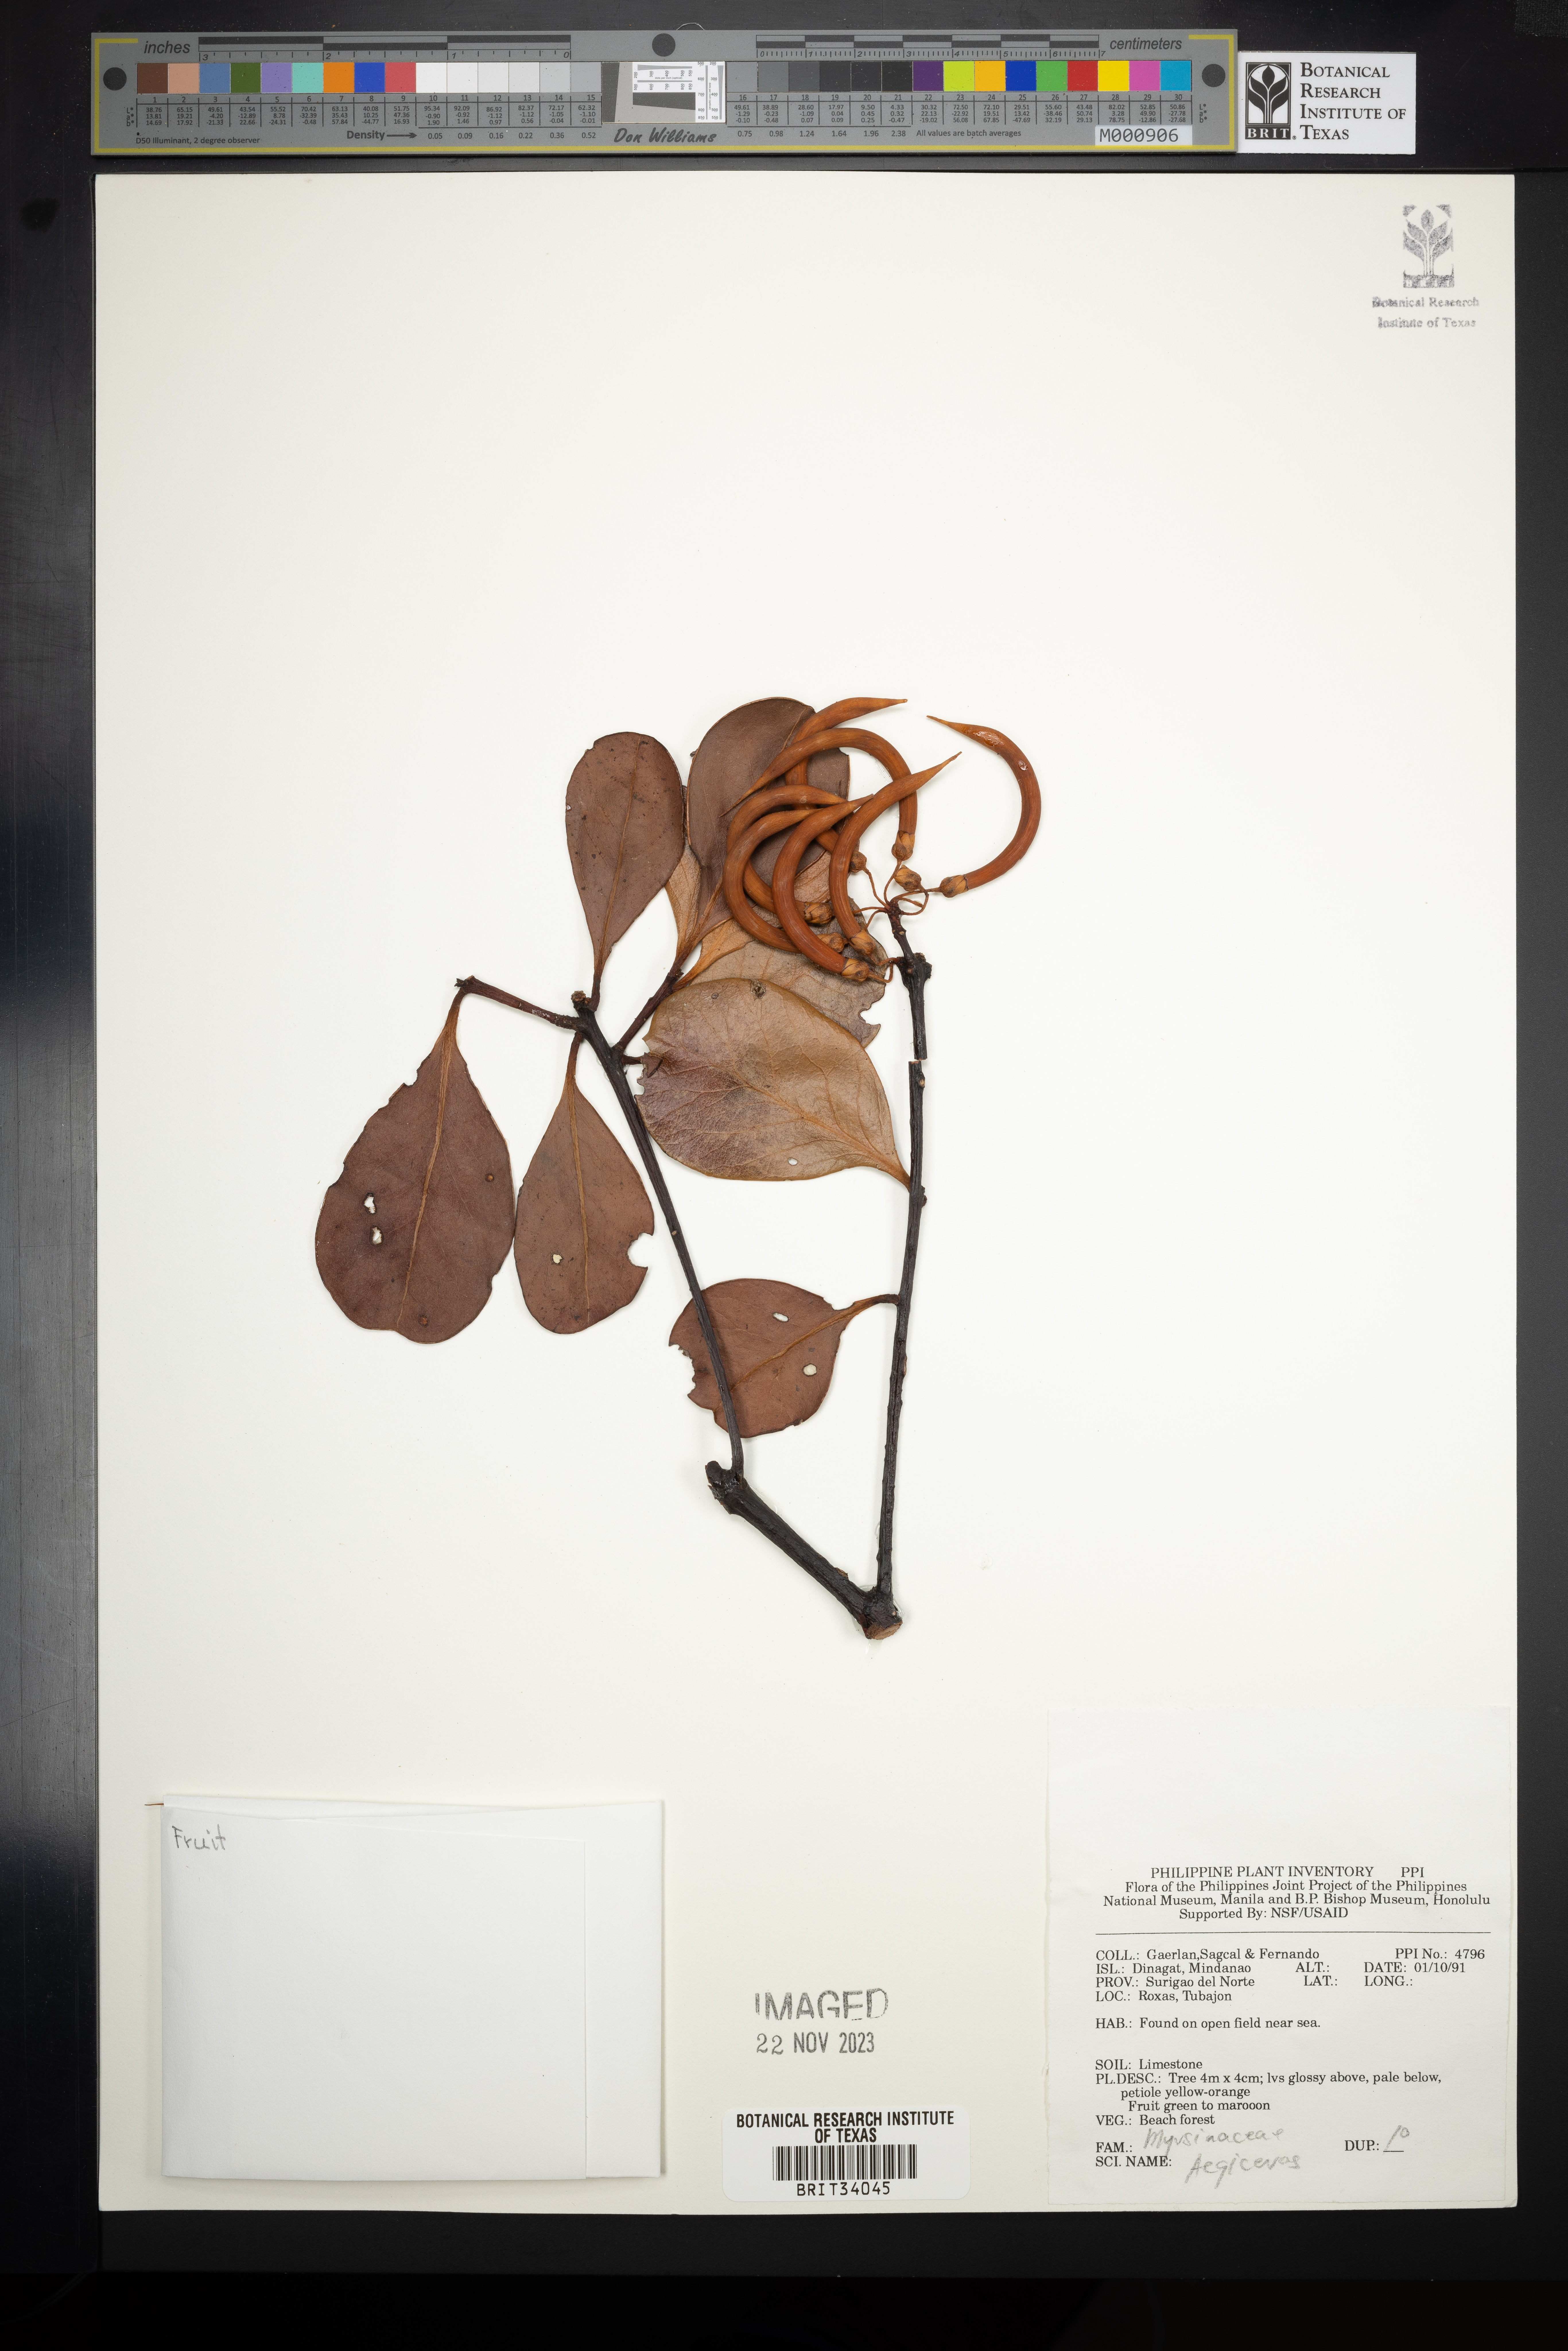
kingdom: Plantae
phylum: Tracheophyta
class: Magnoliopsida
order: Ericales
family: Primulaceae
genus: Aegiceras
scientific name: Aegiceras
